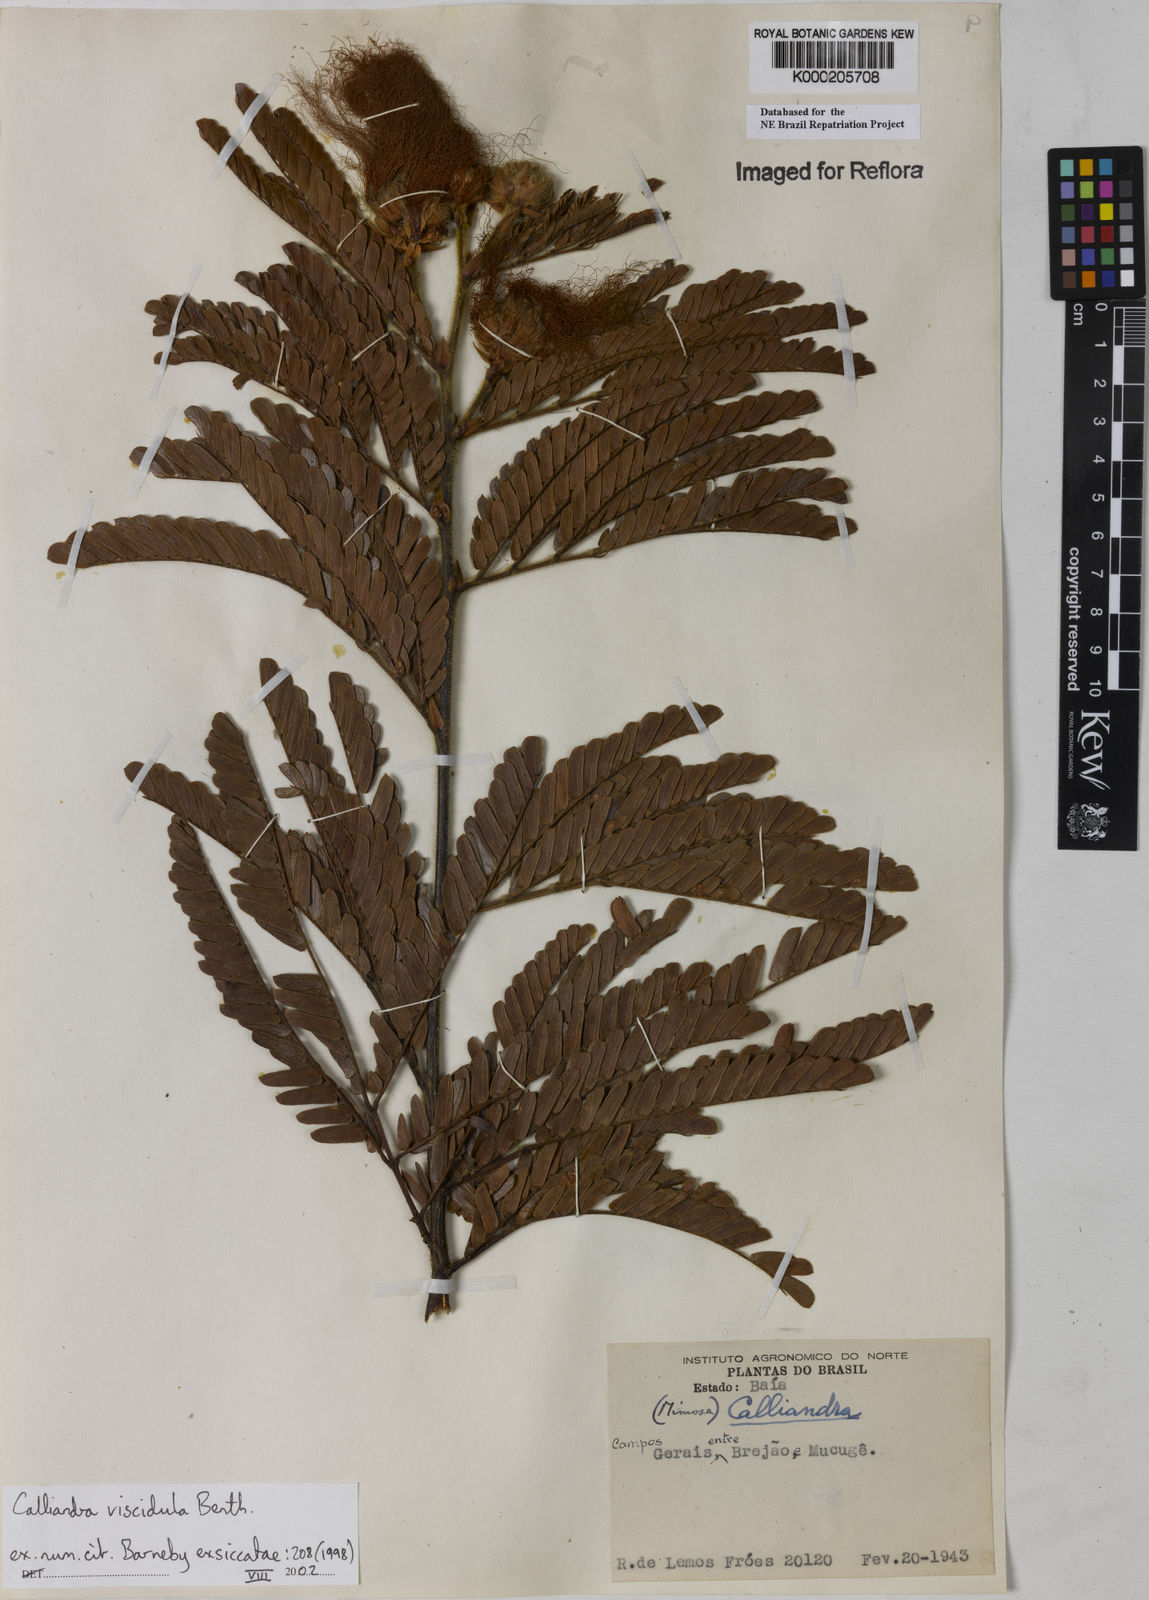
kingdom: Plantae
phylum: Tracheophyta
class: Magnoliopsida
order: Fabales
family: Fabaceae
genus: Calliandra
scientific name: Calliandra viscidula
